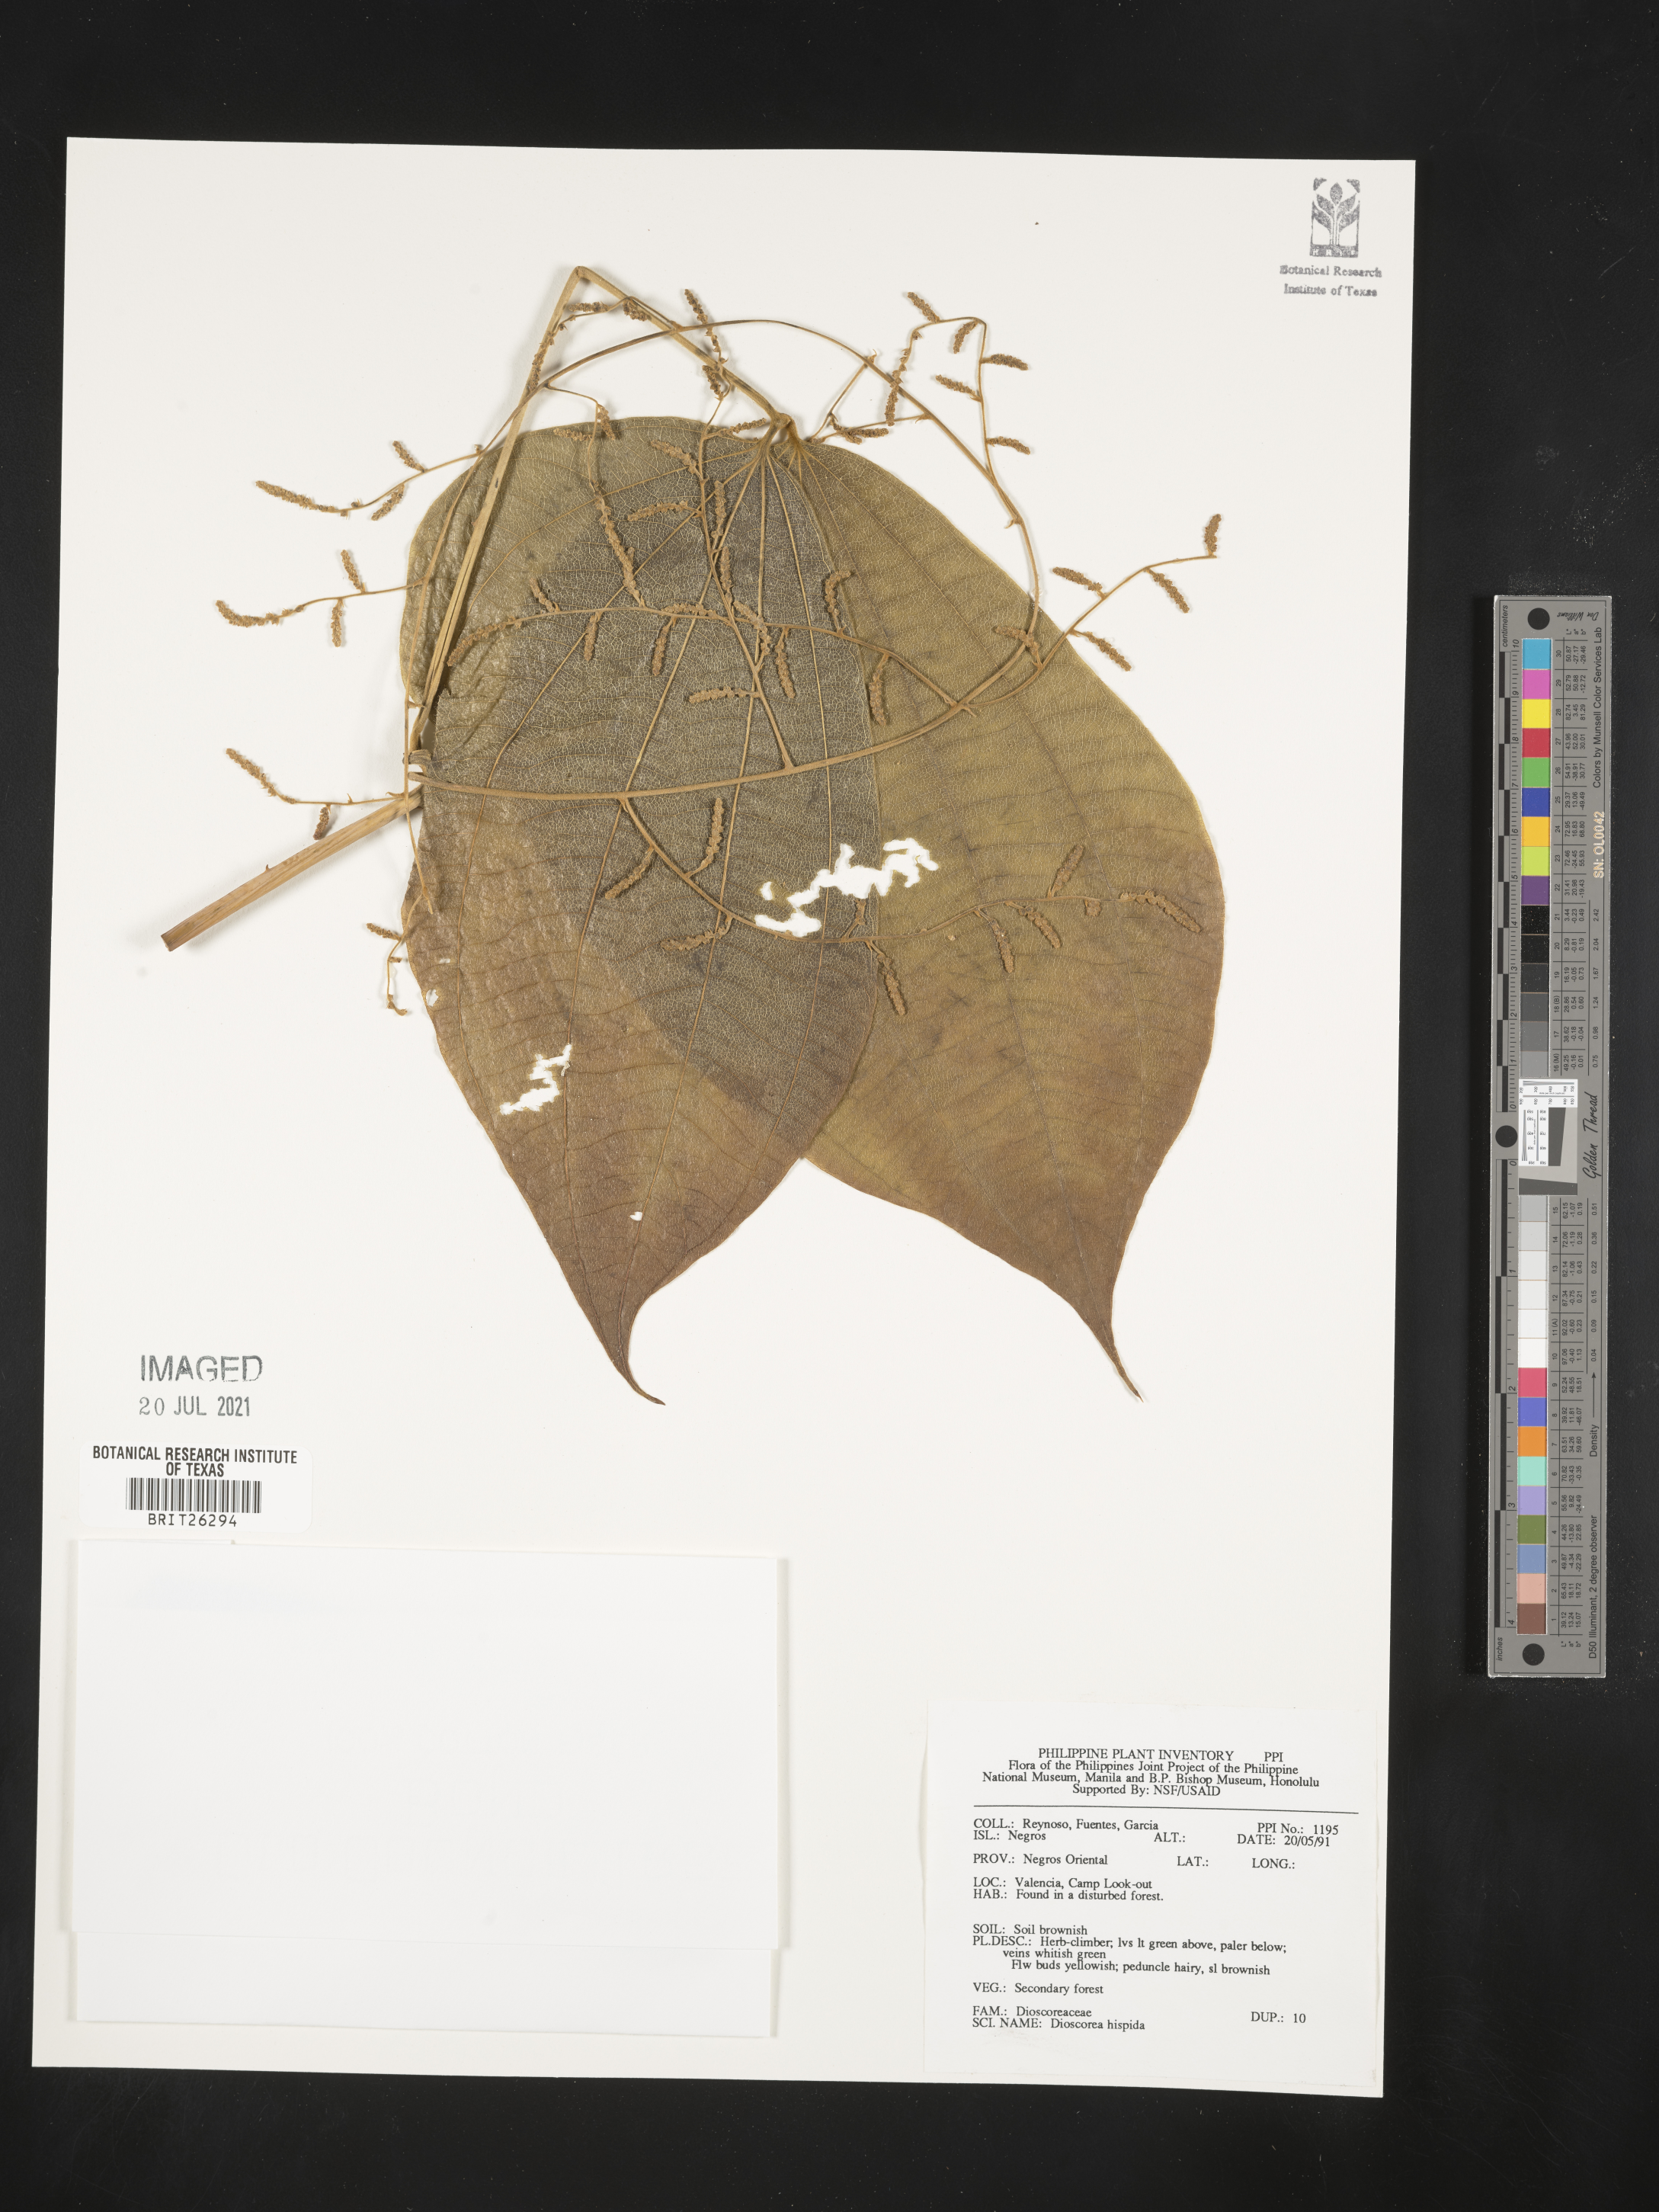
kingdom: Plantae
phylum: Tracheophyta
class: Liliopsida
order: Dioscoreales
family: Dioscoreaceae
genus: Dioscorea
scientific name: Dioscorea hispida
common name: Asiatic bitter yam
